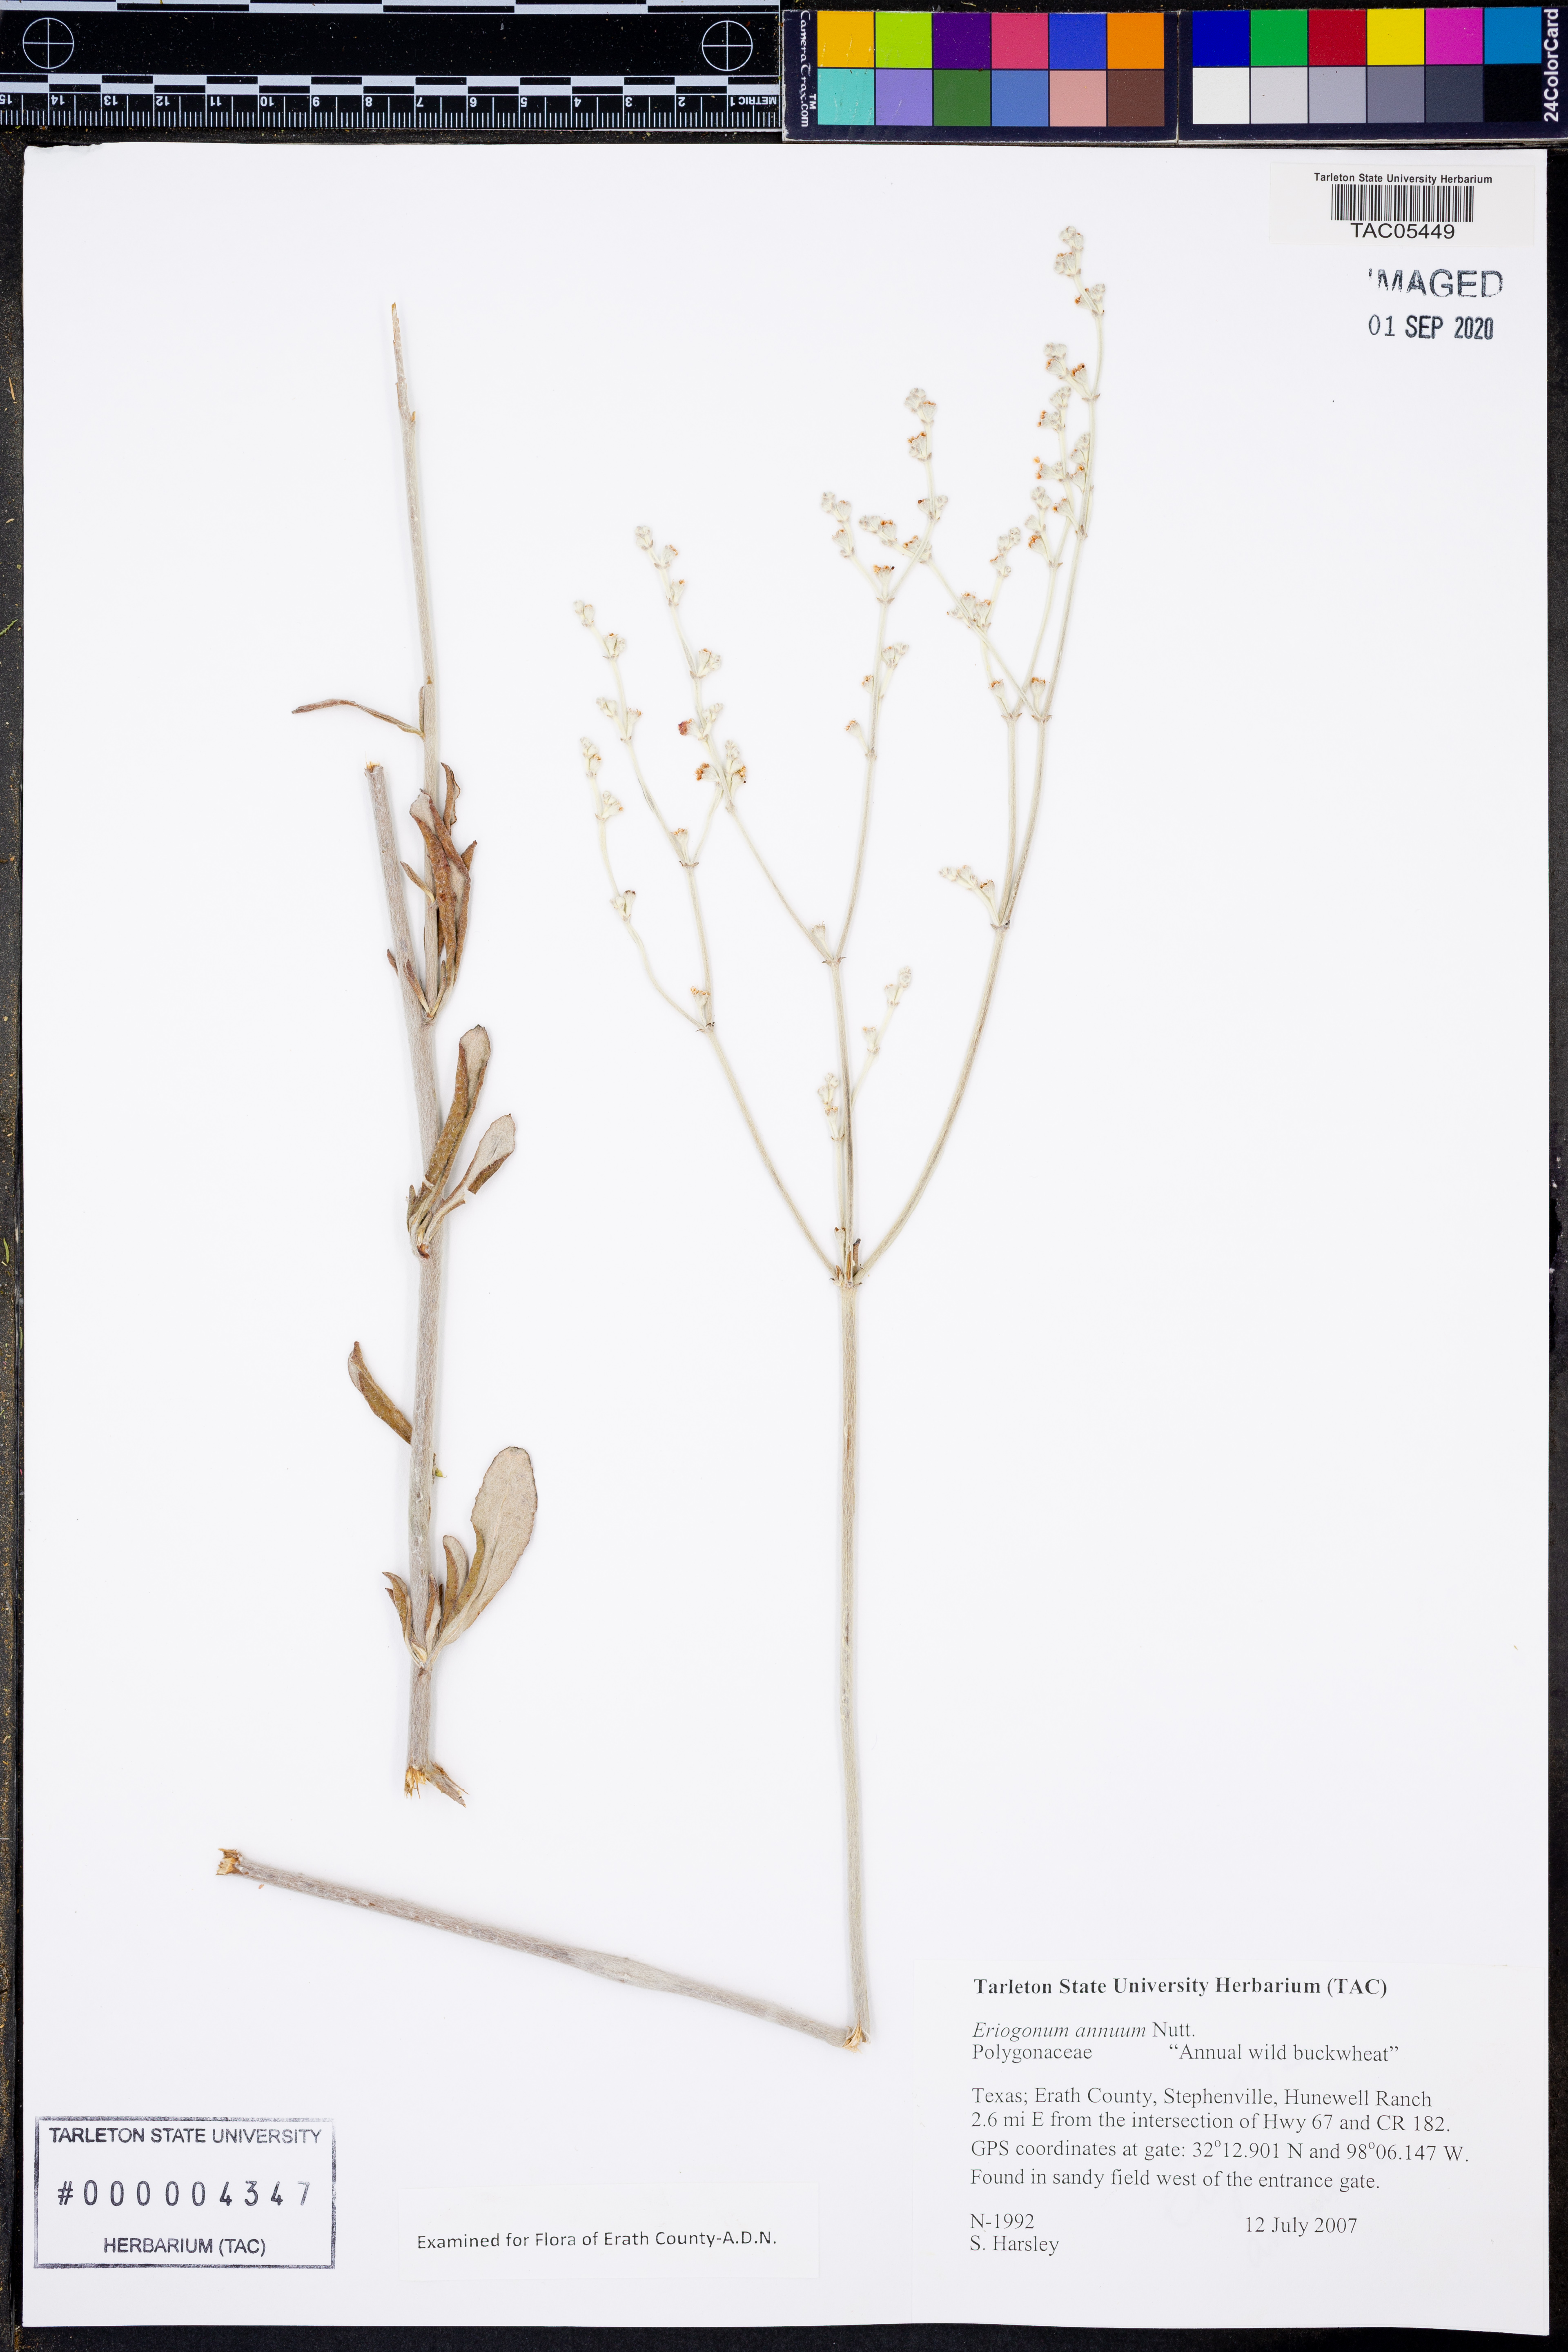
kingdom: Plantae
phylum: Tracheophyta
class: Magnoliopsida
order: Caryophyllales
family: Polygonaceae
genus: Eriogonum
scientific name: Eriogonum annuum
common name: Annual wild buckwheat
